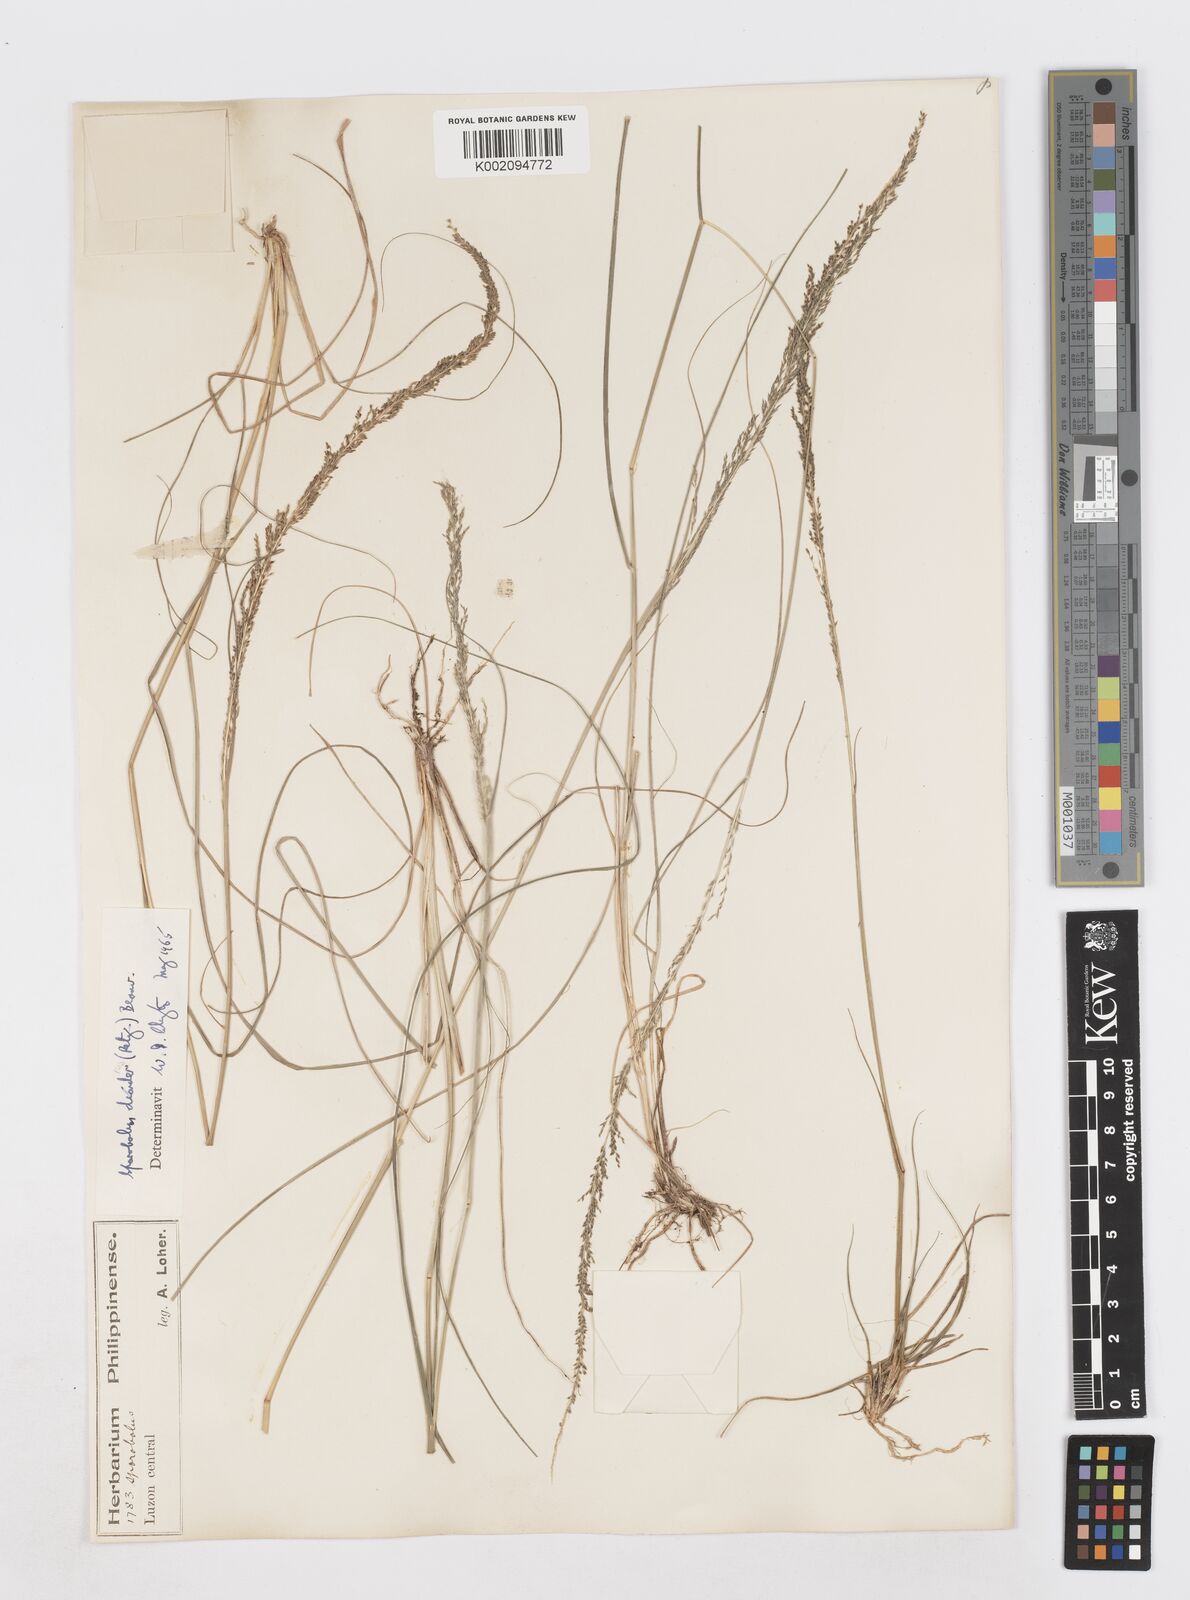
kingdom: Plantae
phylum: Tracheophyta
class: Liliopsida
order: Poales
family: Poaceae
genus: Sporobolus
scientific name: Sporobolus diandrus
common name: Tussock dropseed
